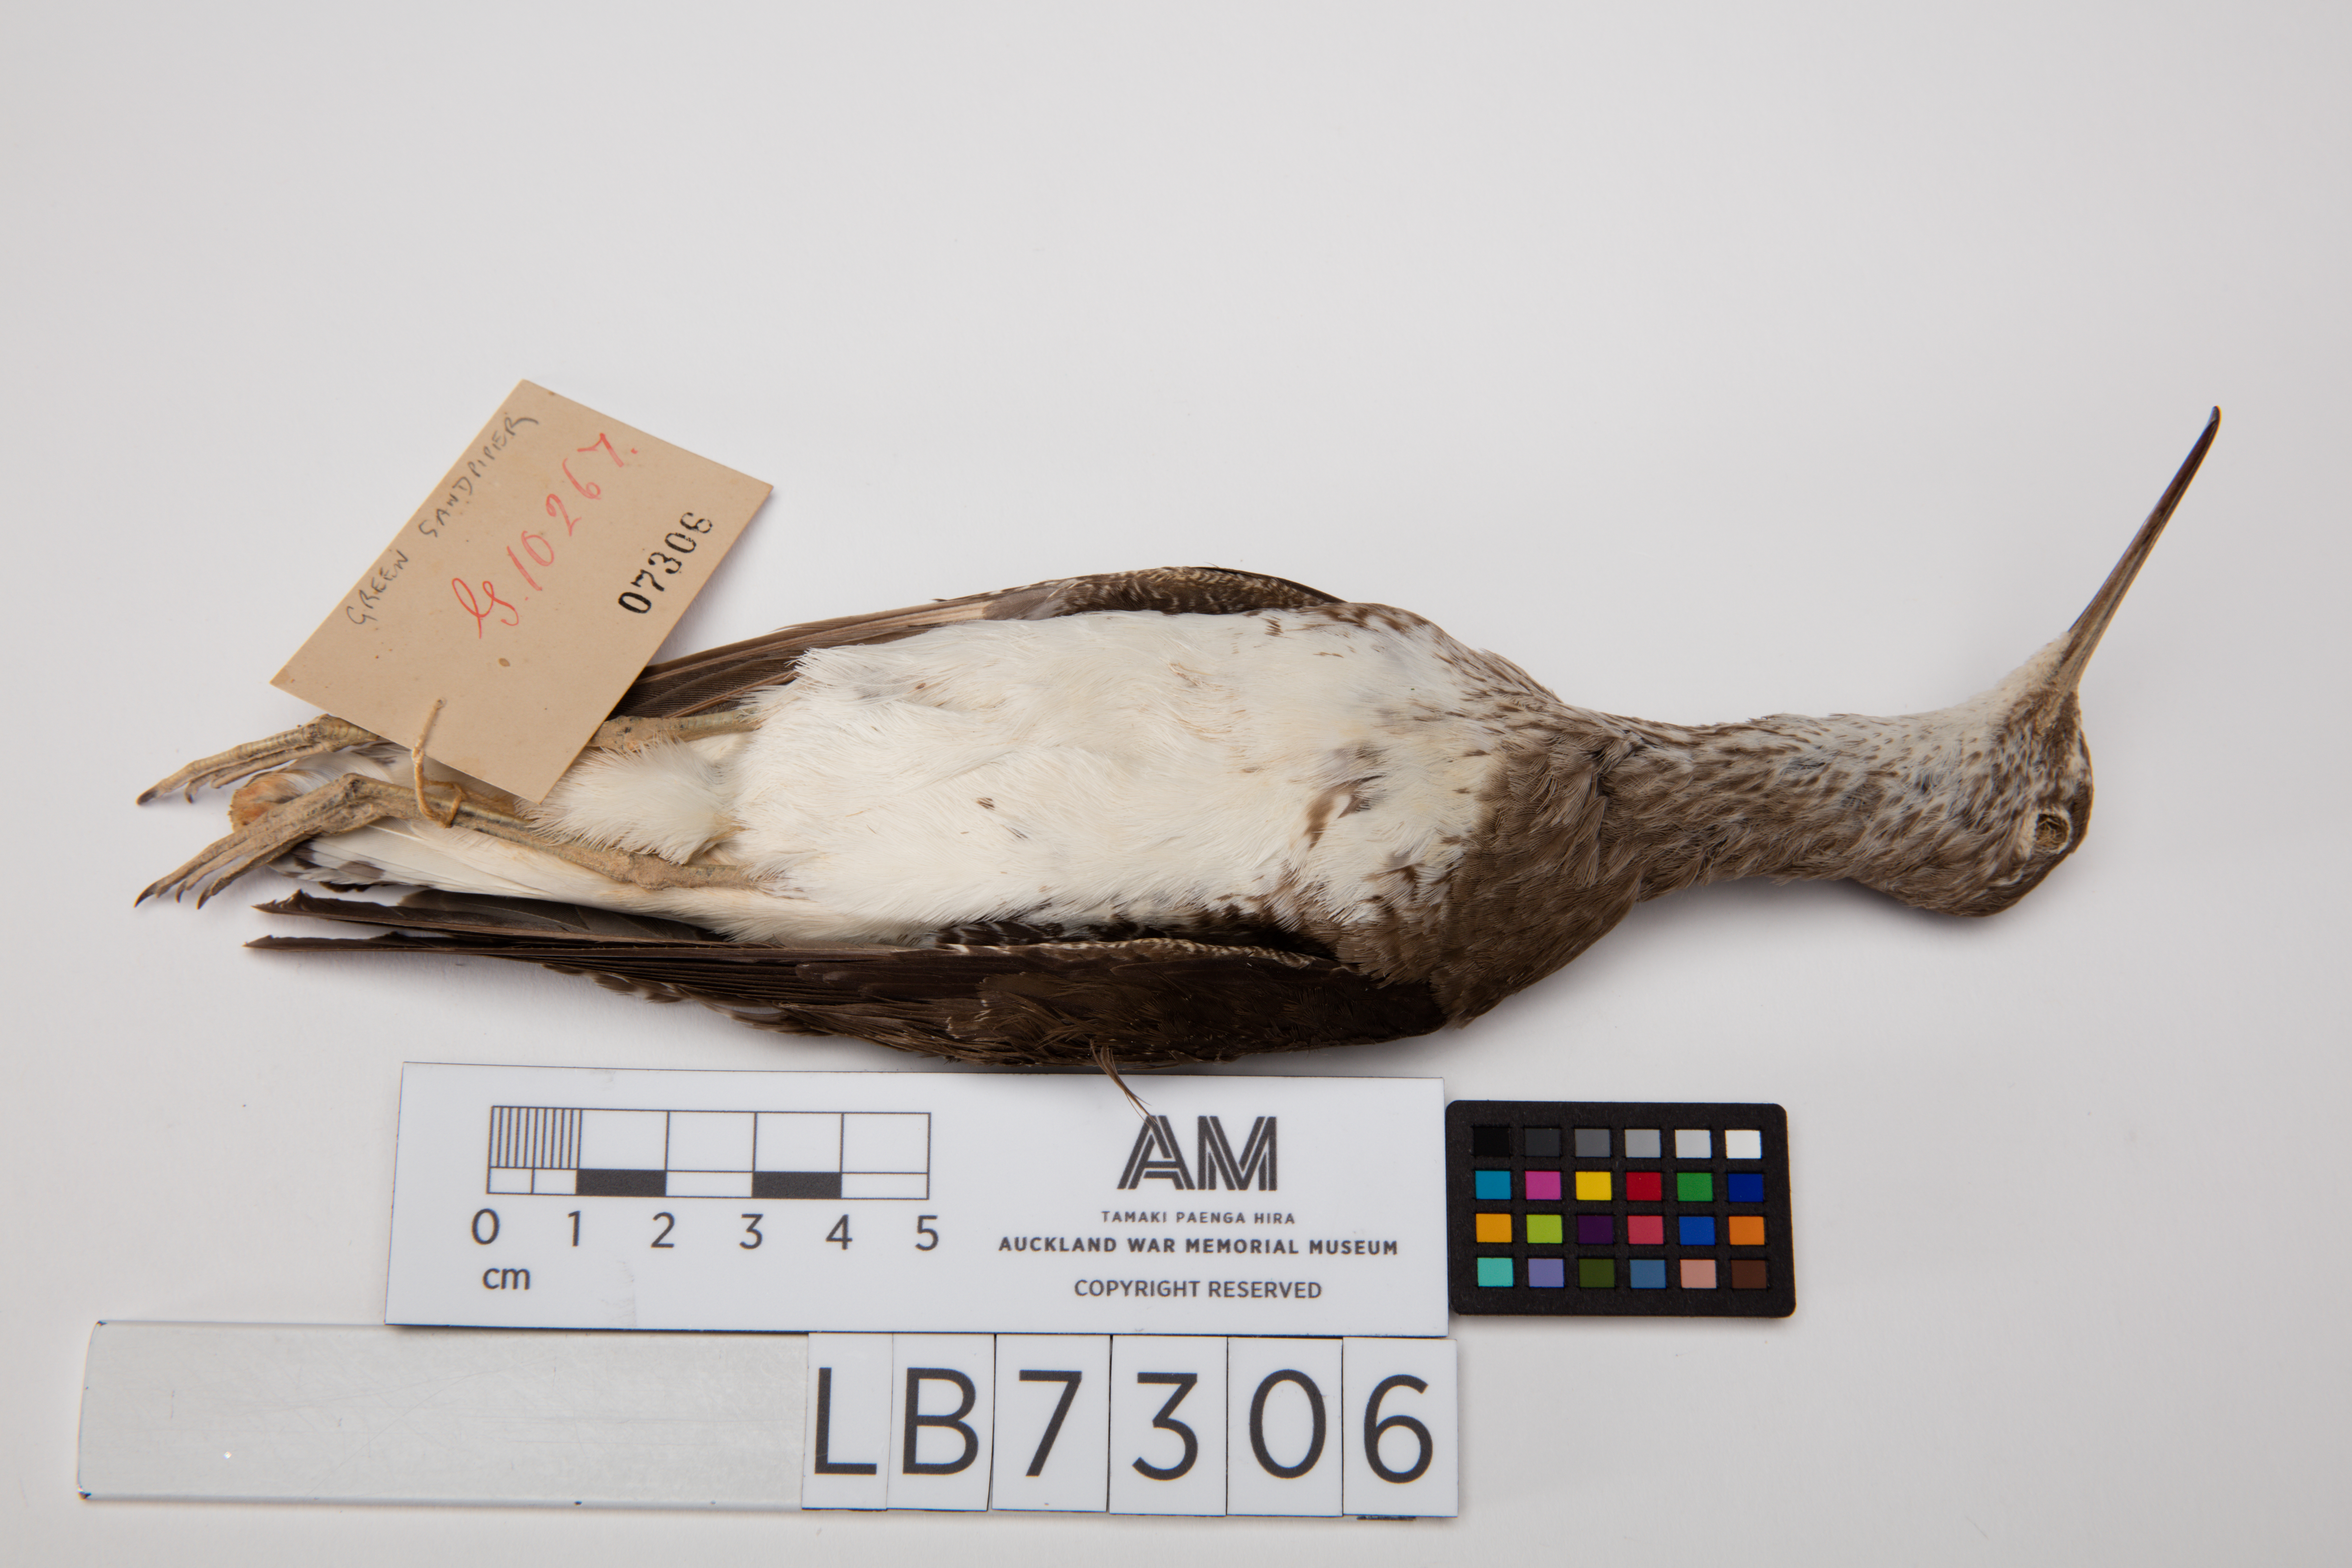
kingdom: Animalia
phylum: Chordata
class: Aves
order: Charadriiformes
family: Scolopacidae
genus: Tringa
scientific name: Tringa ochropus
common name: Green sandpiper
